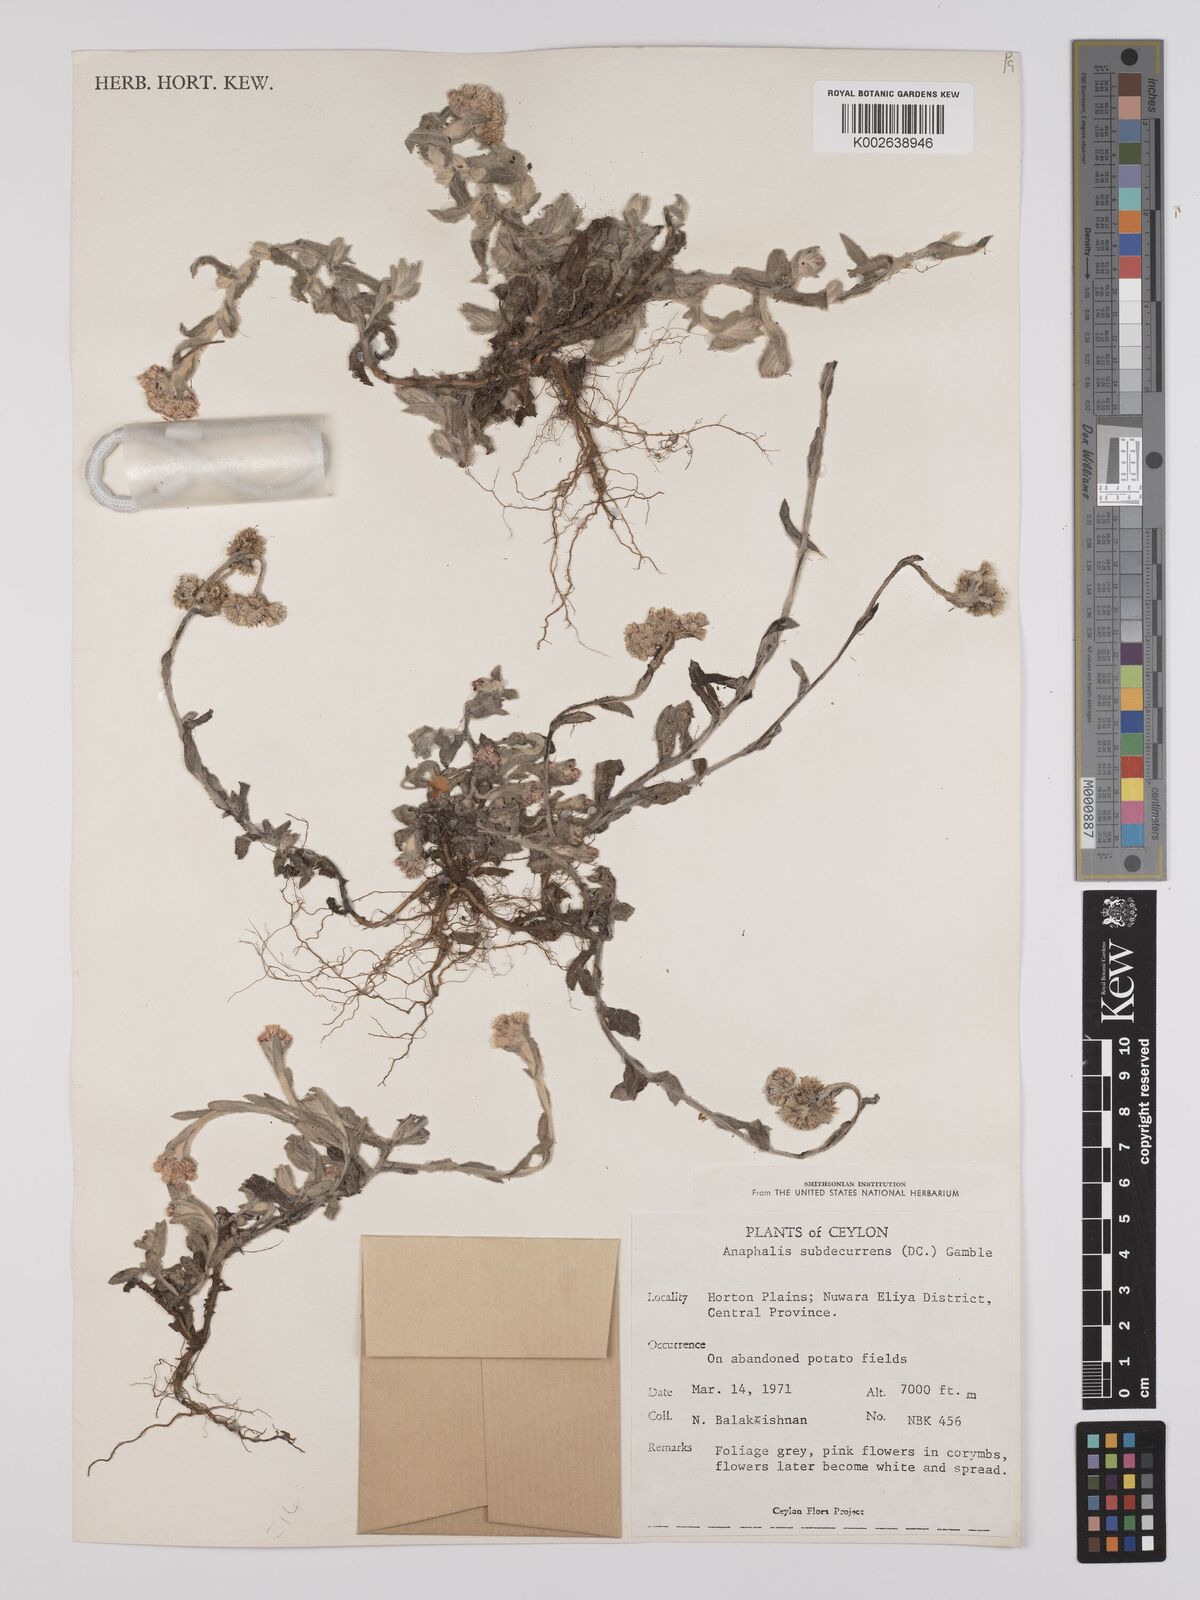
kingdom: Plantae
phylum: Tracheophyta
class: Magnoliopsida
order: Asterales
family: Asteraceae
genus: Anaphalis
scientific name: Anaphalis subdecurrens
